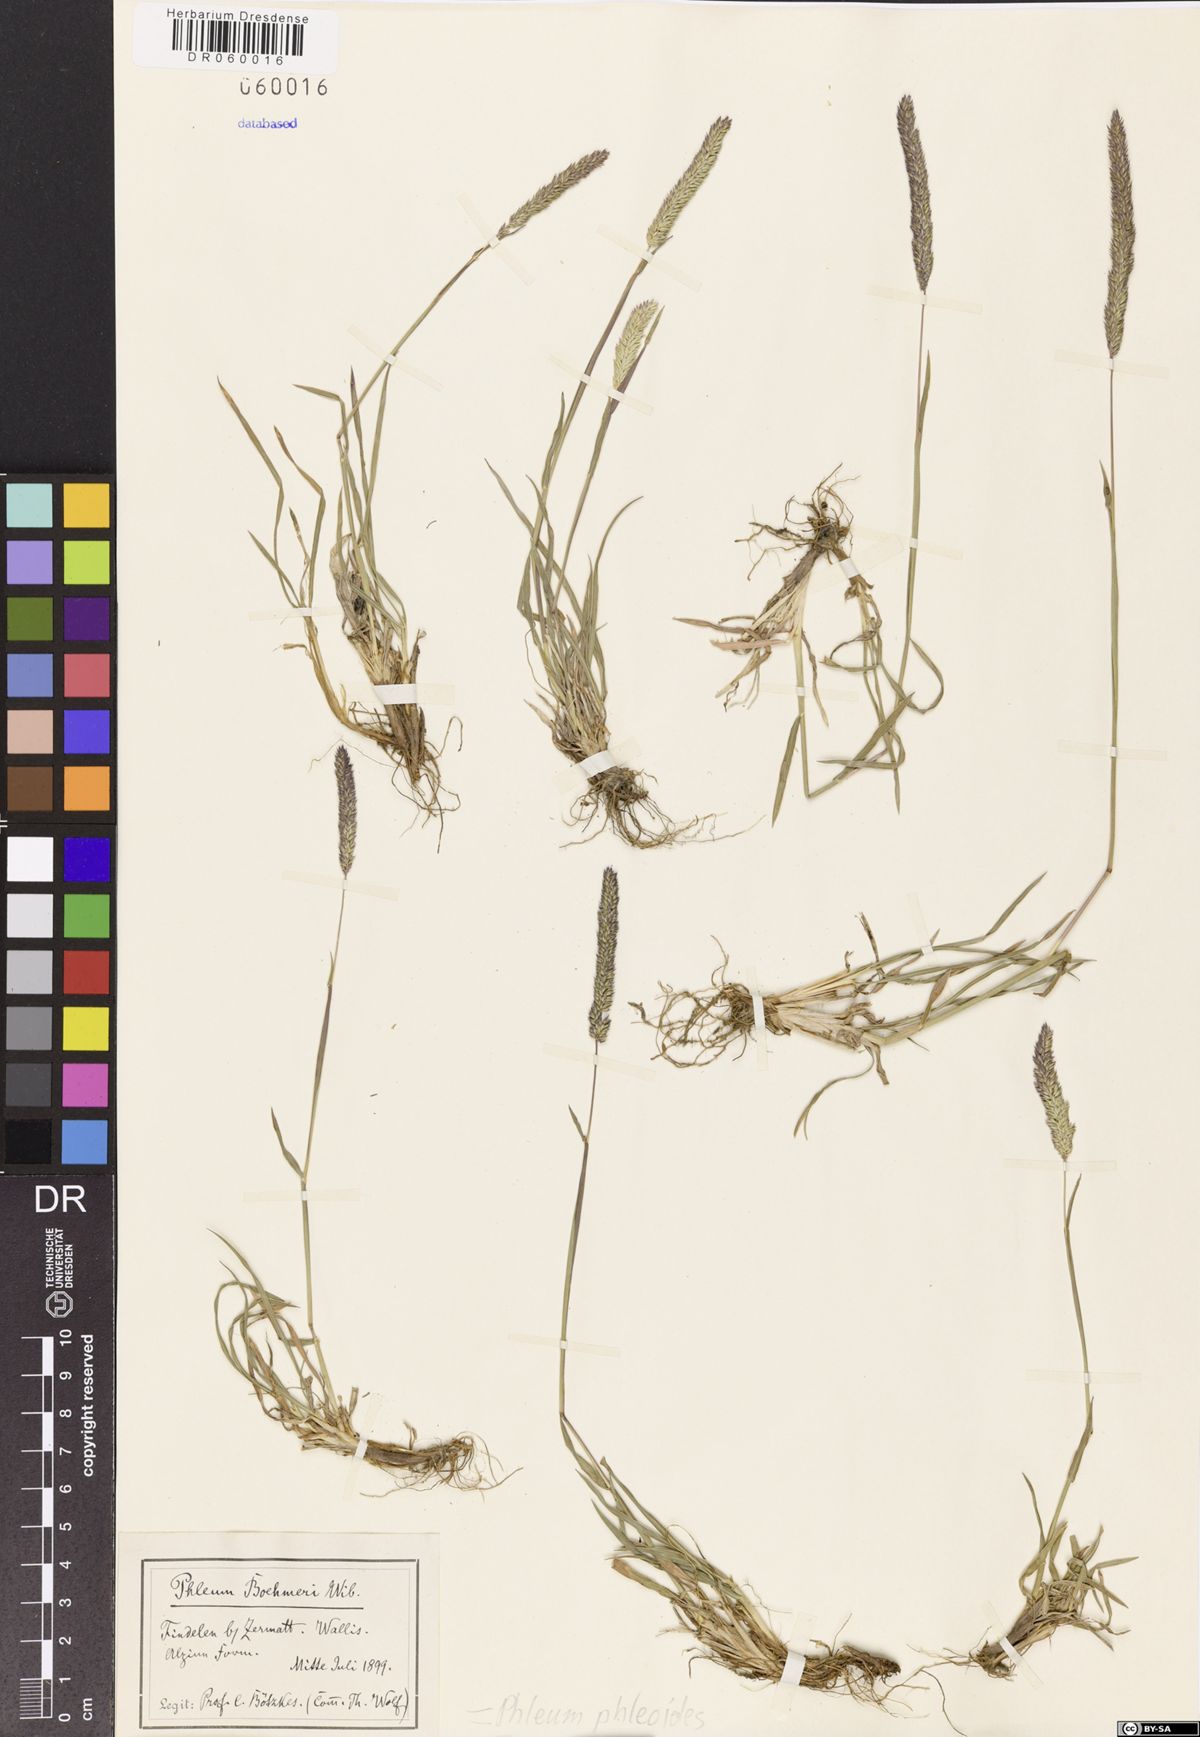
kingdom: Plantae
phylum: Tracheophyta
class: Liliopsida
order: Poales
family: Poaceae
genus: Phleum
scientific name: Phleum phleoides
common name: Purple-stem cat's-tail
